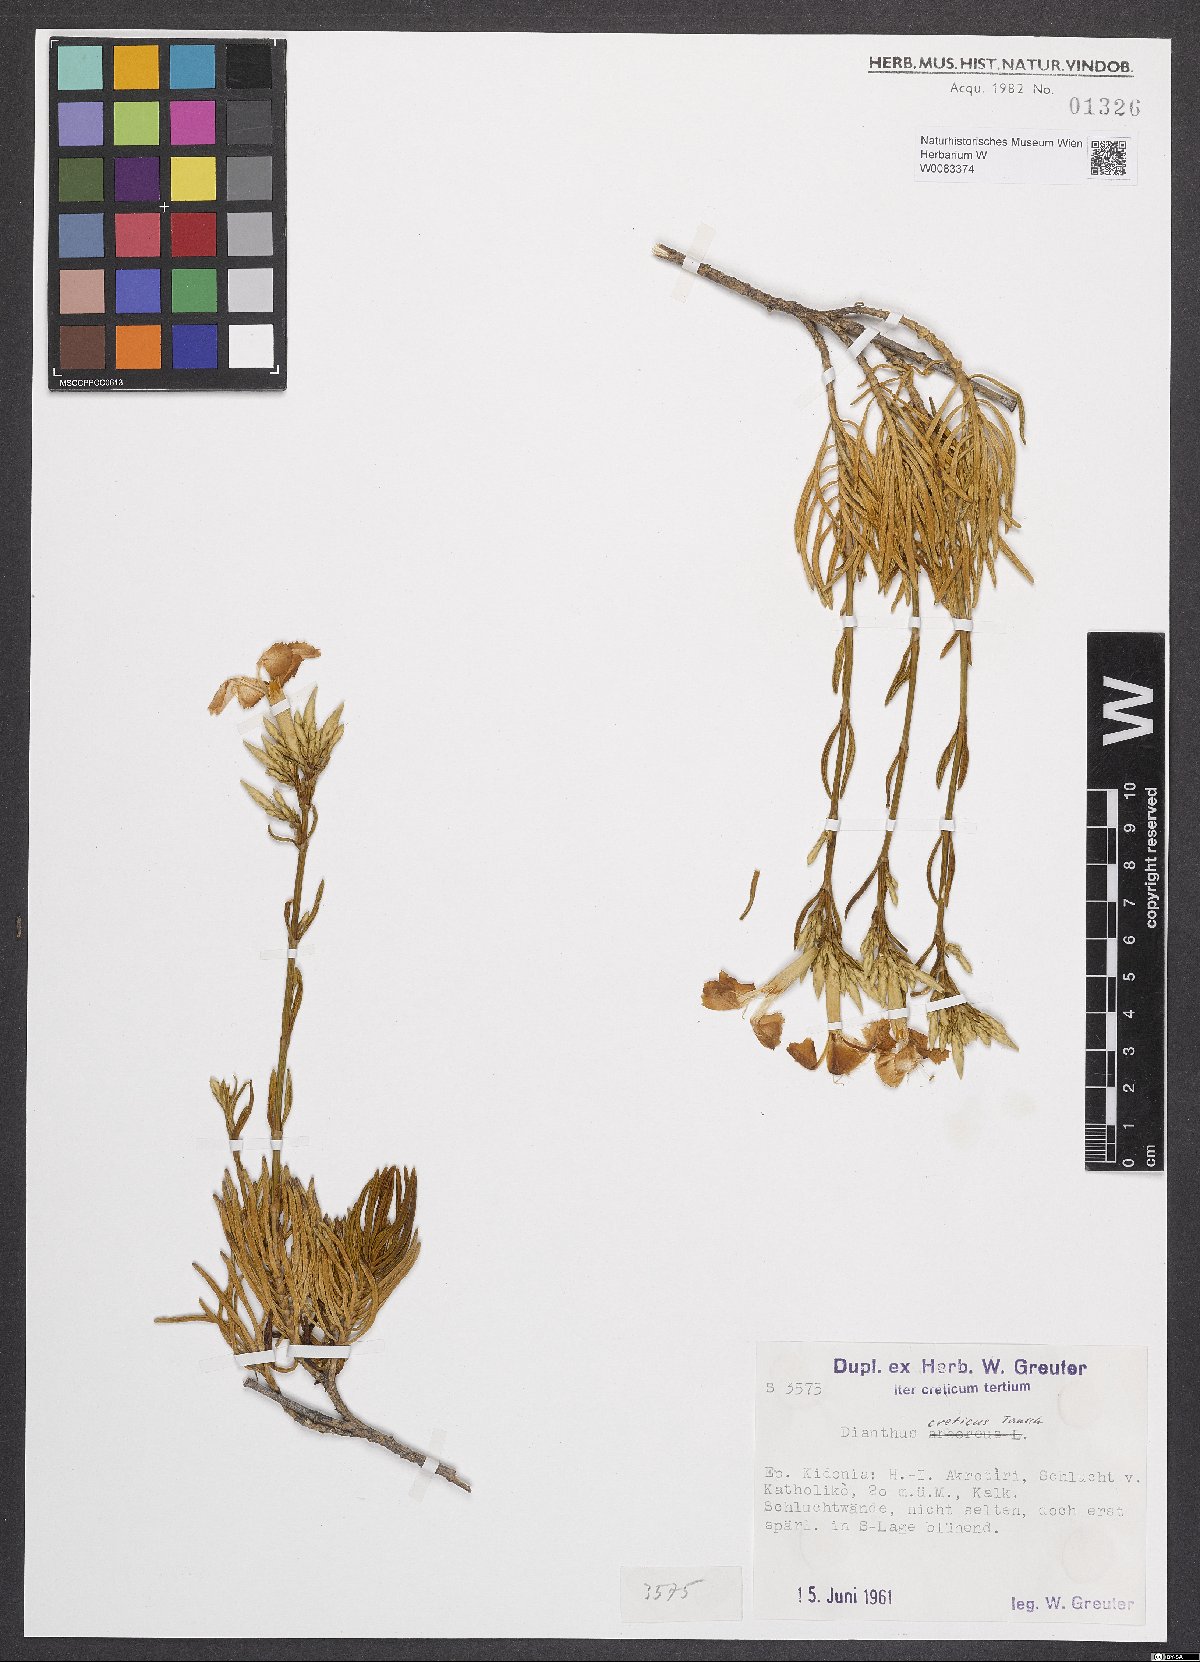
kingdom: Plantae
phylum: Tracheophyta
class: Magnoliopsida
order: Caryophyllales
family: Caryophyllaceae
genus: Dianthus
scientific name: Dianthus fruticosus
